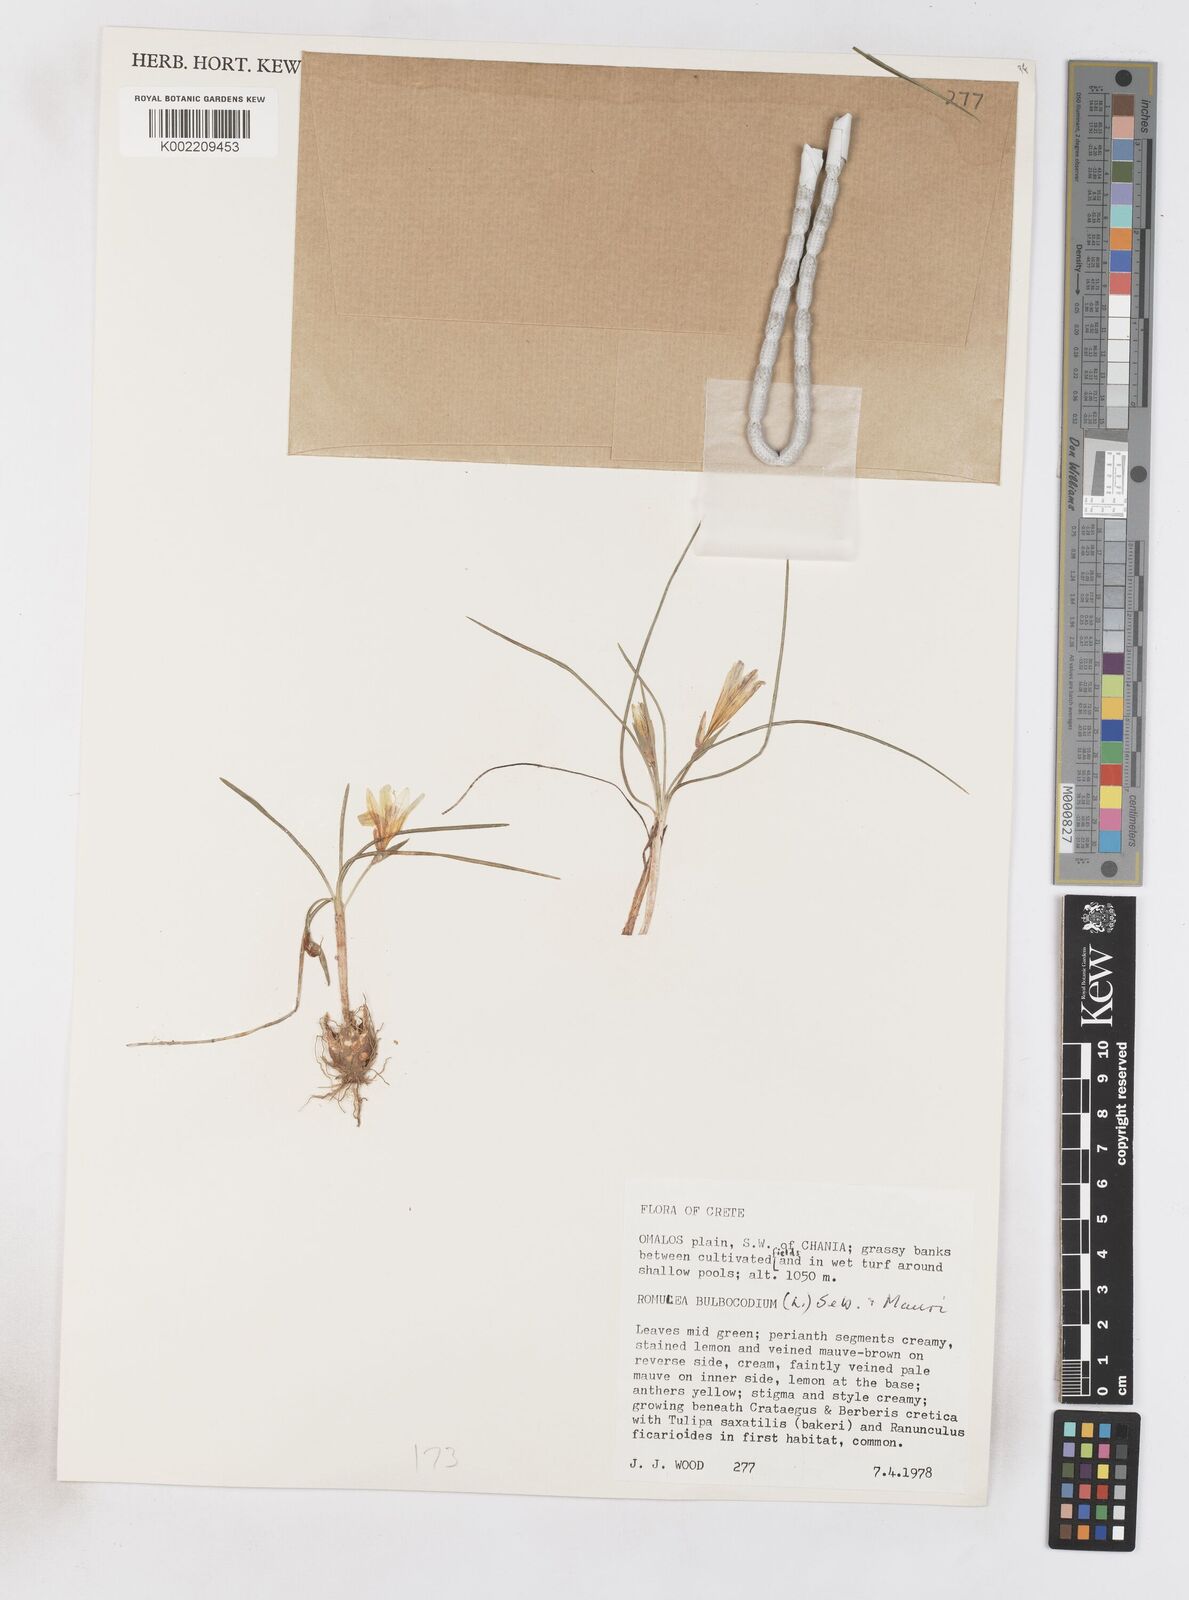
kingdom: Plantae
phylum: Tracheophyta
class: Liliopsida
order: Asparagales
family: Iridaceae
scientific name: Iridaceae
